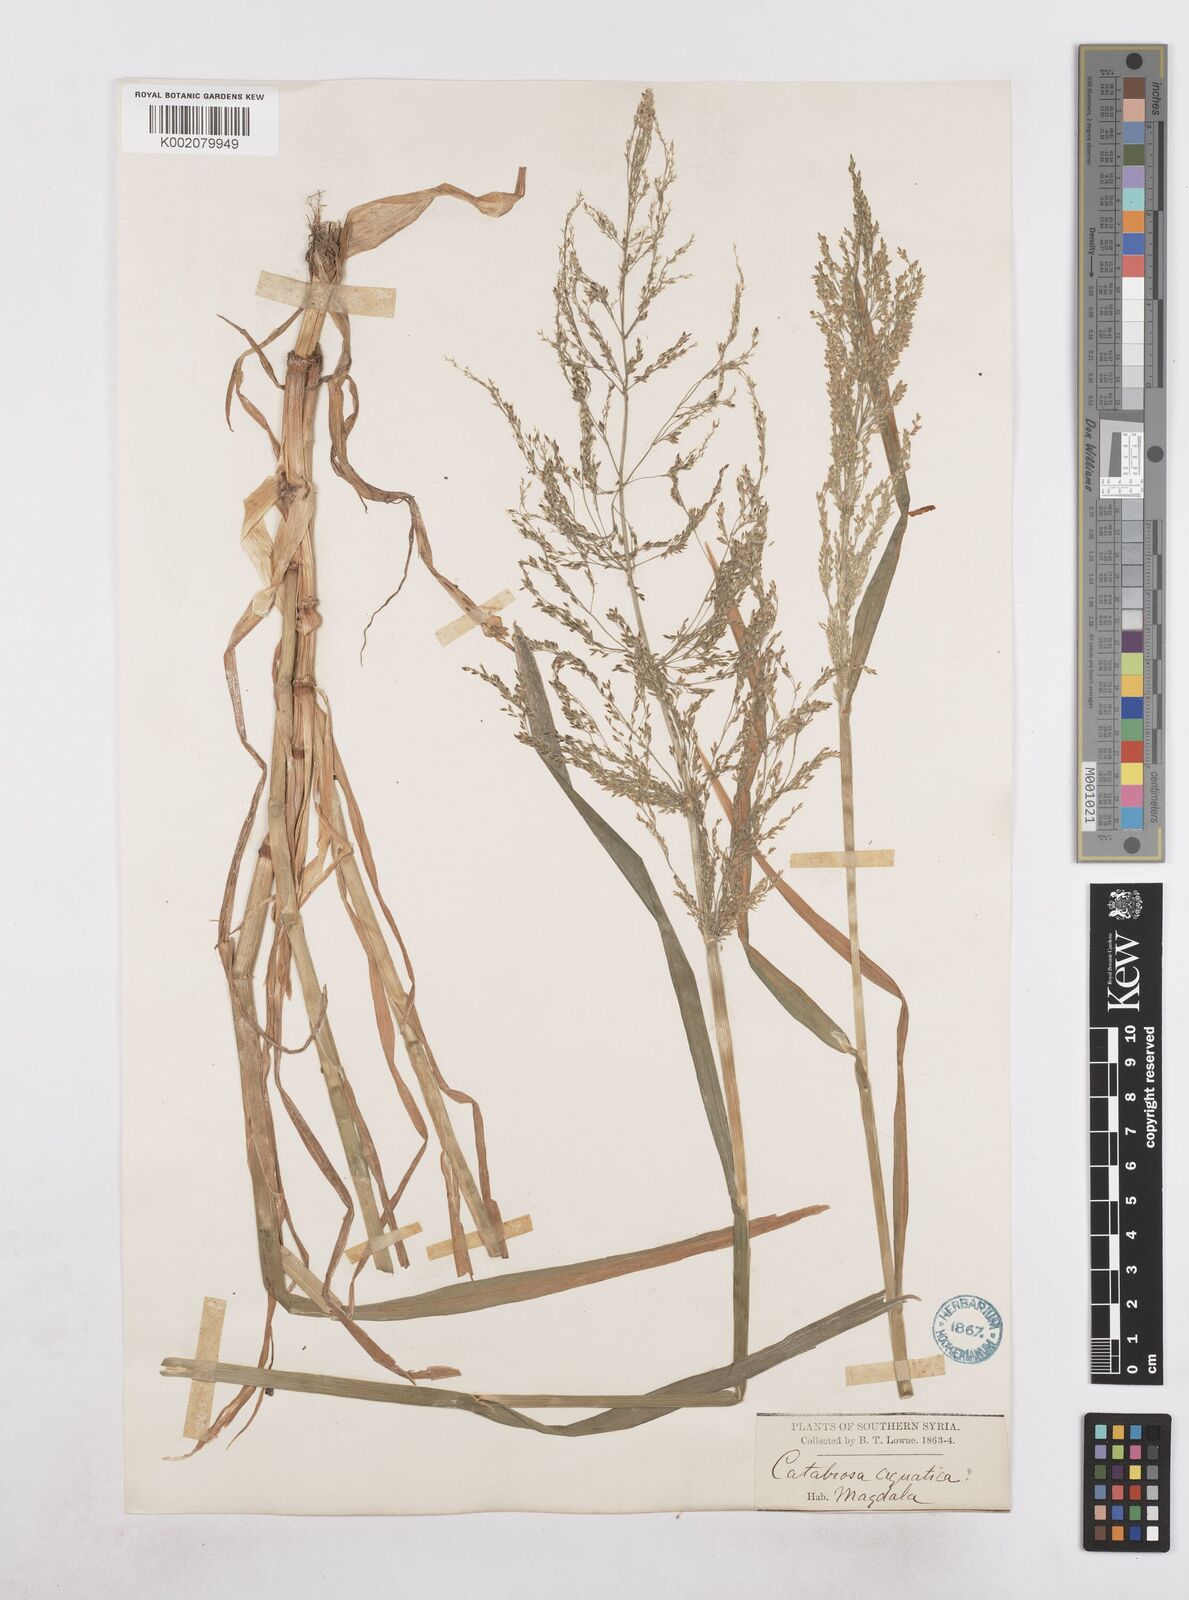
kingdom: Plantae
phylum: Tracheophyta
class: Liliopsida
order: Poales
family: Poaceae
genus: Catabrosa
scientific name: Catabrosa aquatica
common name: Whorl-grass
